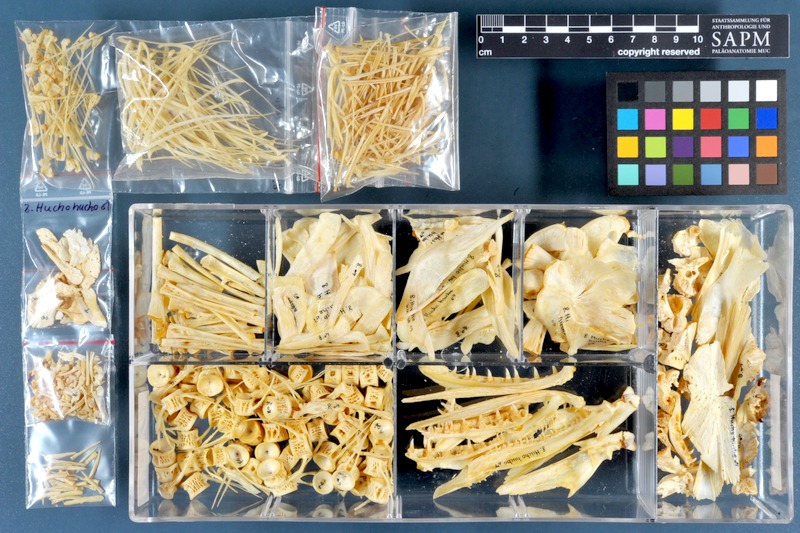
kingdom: Animalia
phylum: Chordata
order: Salmoniformes
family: Salmonidae
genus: Hucho
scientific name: Hucho hucho
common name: Huchen (danube salmon)
